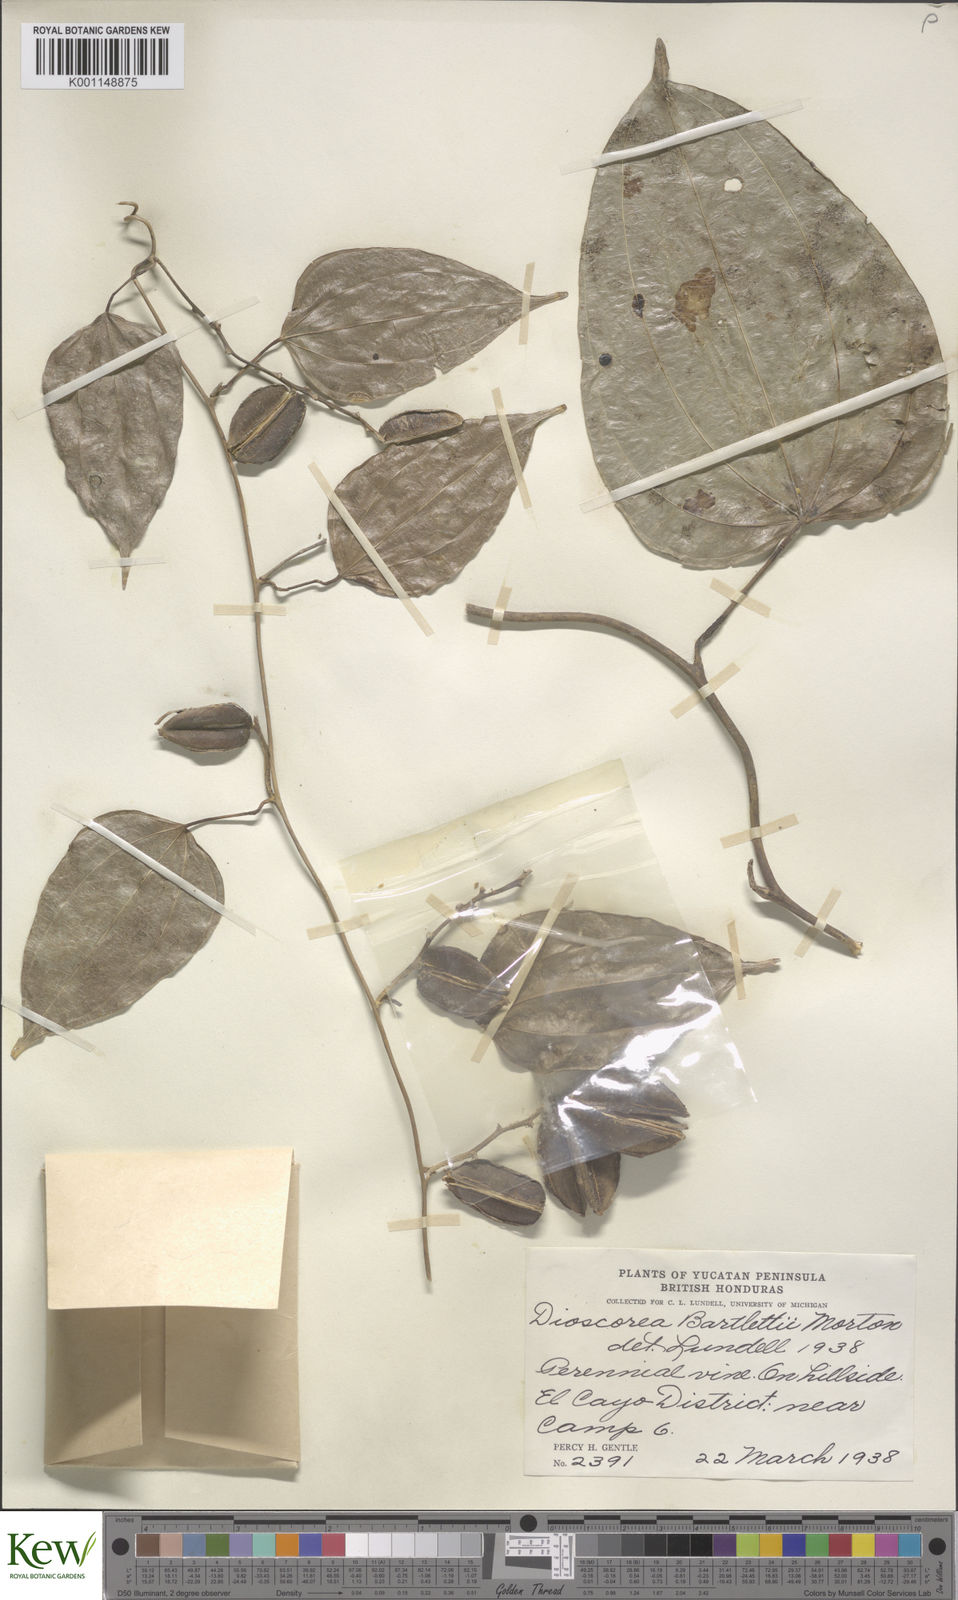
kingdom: Plantae
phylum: Tracheophyta
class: Liliopsida
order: Dioscoreales
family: Dioscoreaceae
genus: Dioscorea
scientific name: Dioscorea bartlettii
